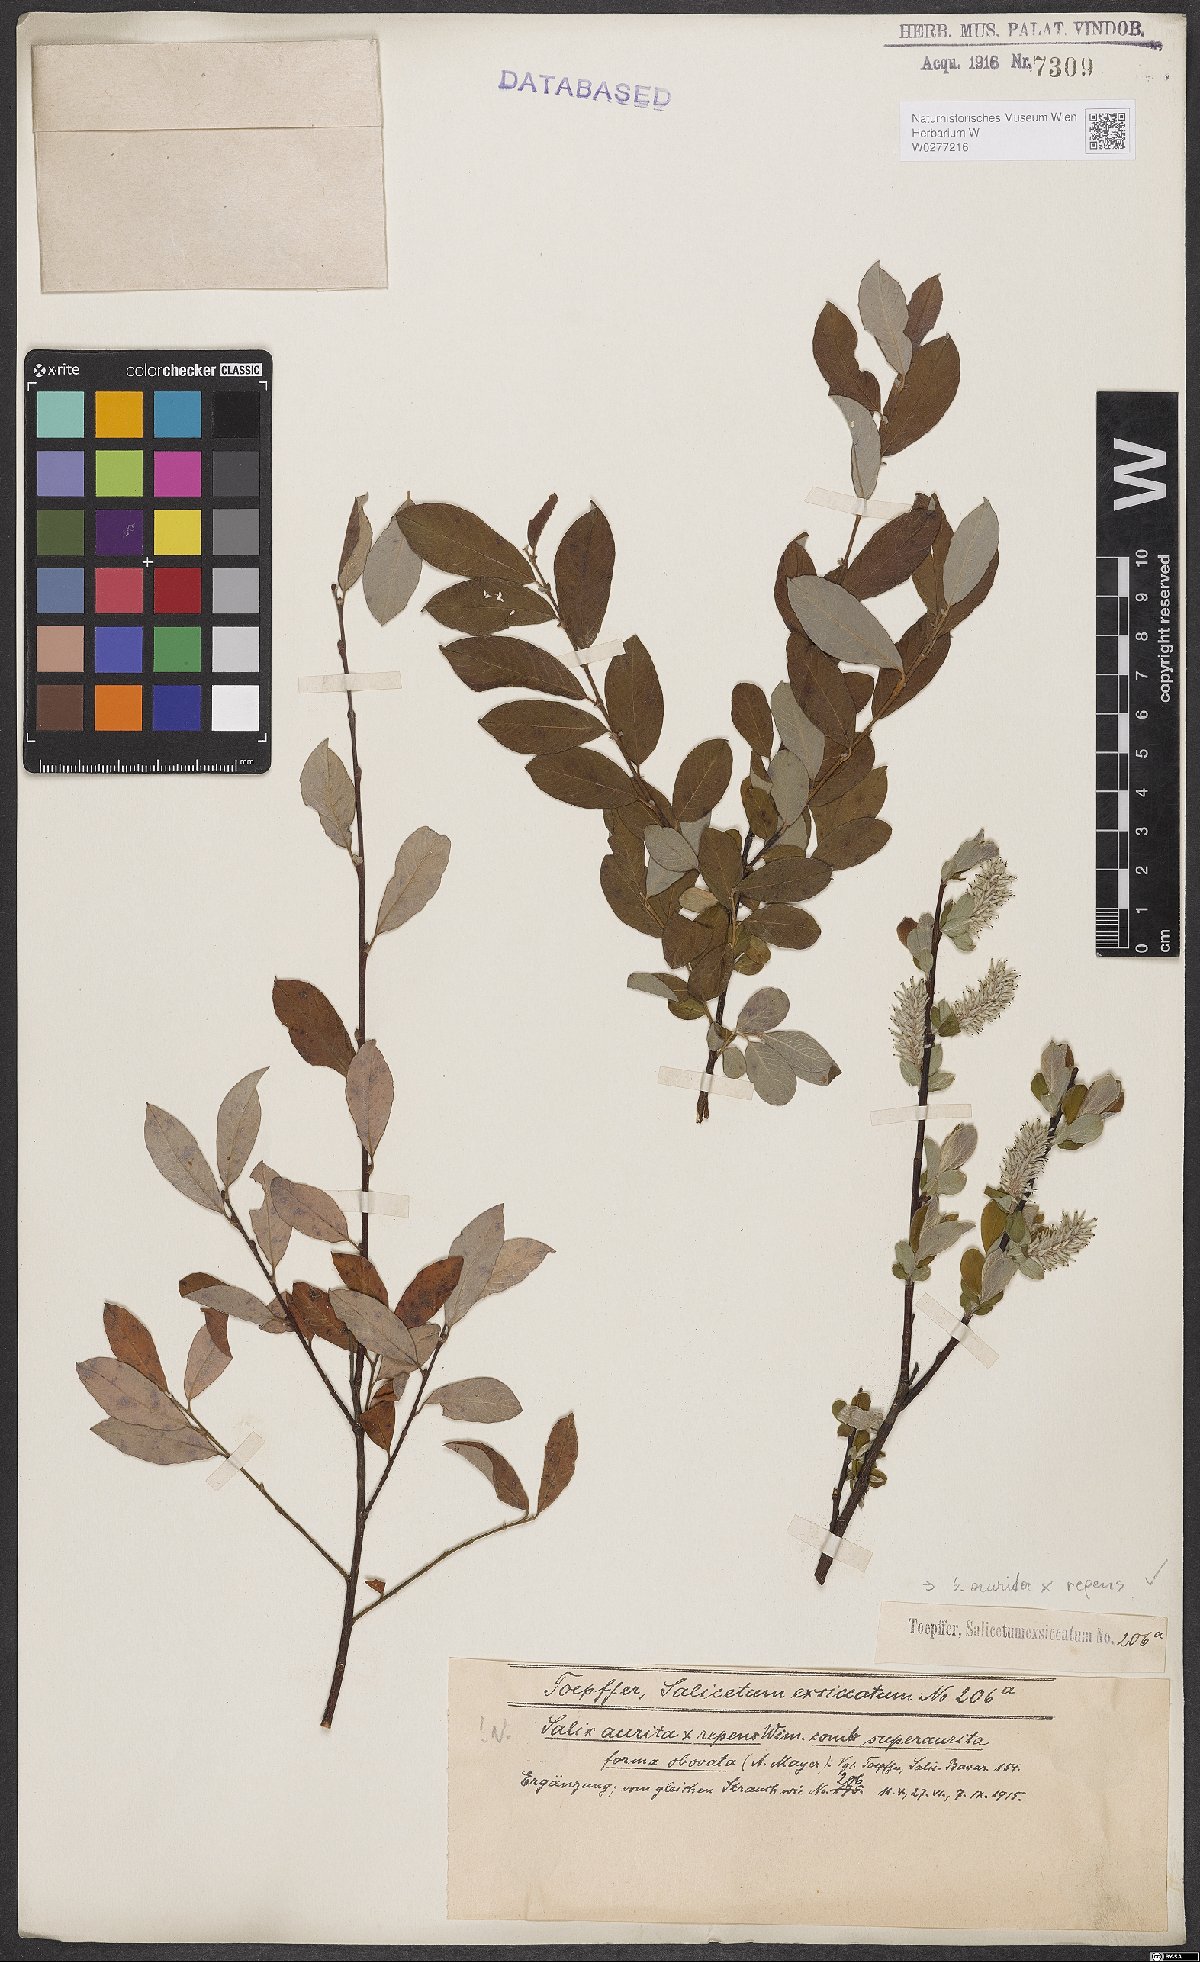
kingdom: Plantae
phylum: Tracheophyta
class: Magnoliopsida
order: Malpighiales
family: Salicaceae
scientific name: Salicaceae
